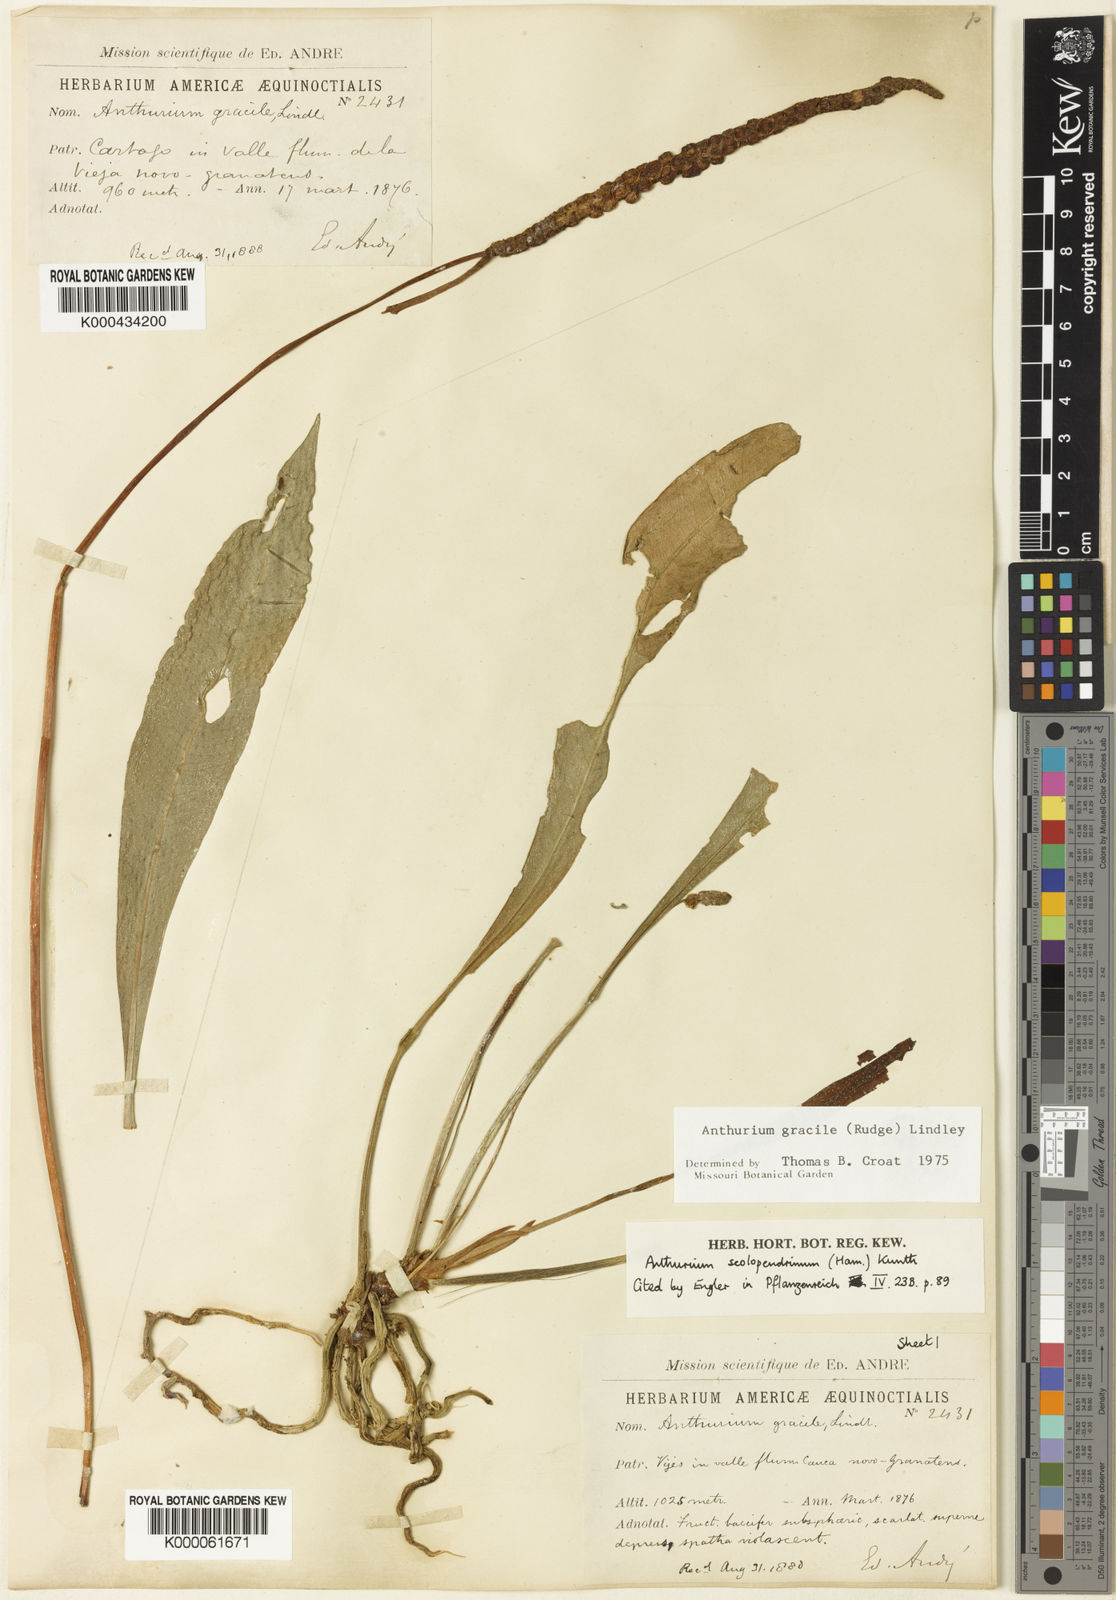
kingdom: Plantae
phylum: Tracheophyta
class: Liliopsida
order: Alismatales
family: Araceae
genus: Anthurium
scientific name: Anthurium gracile
